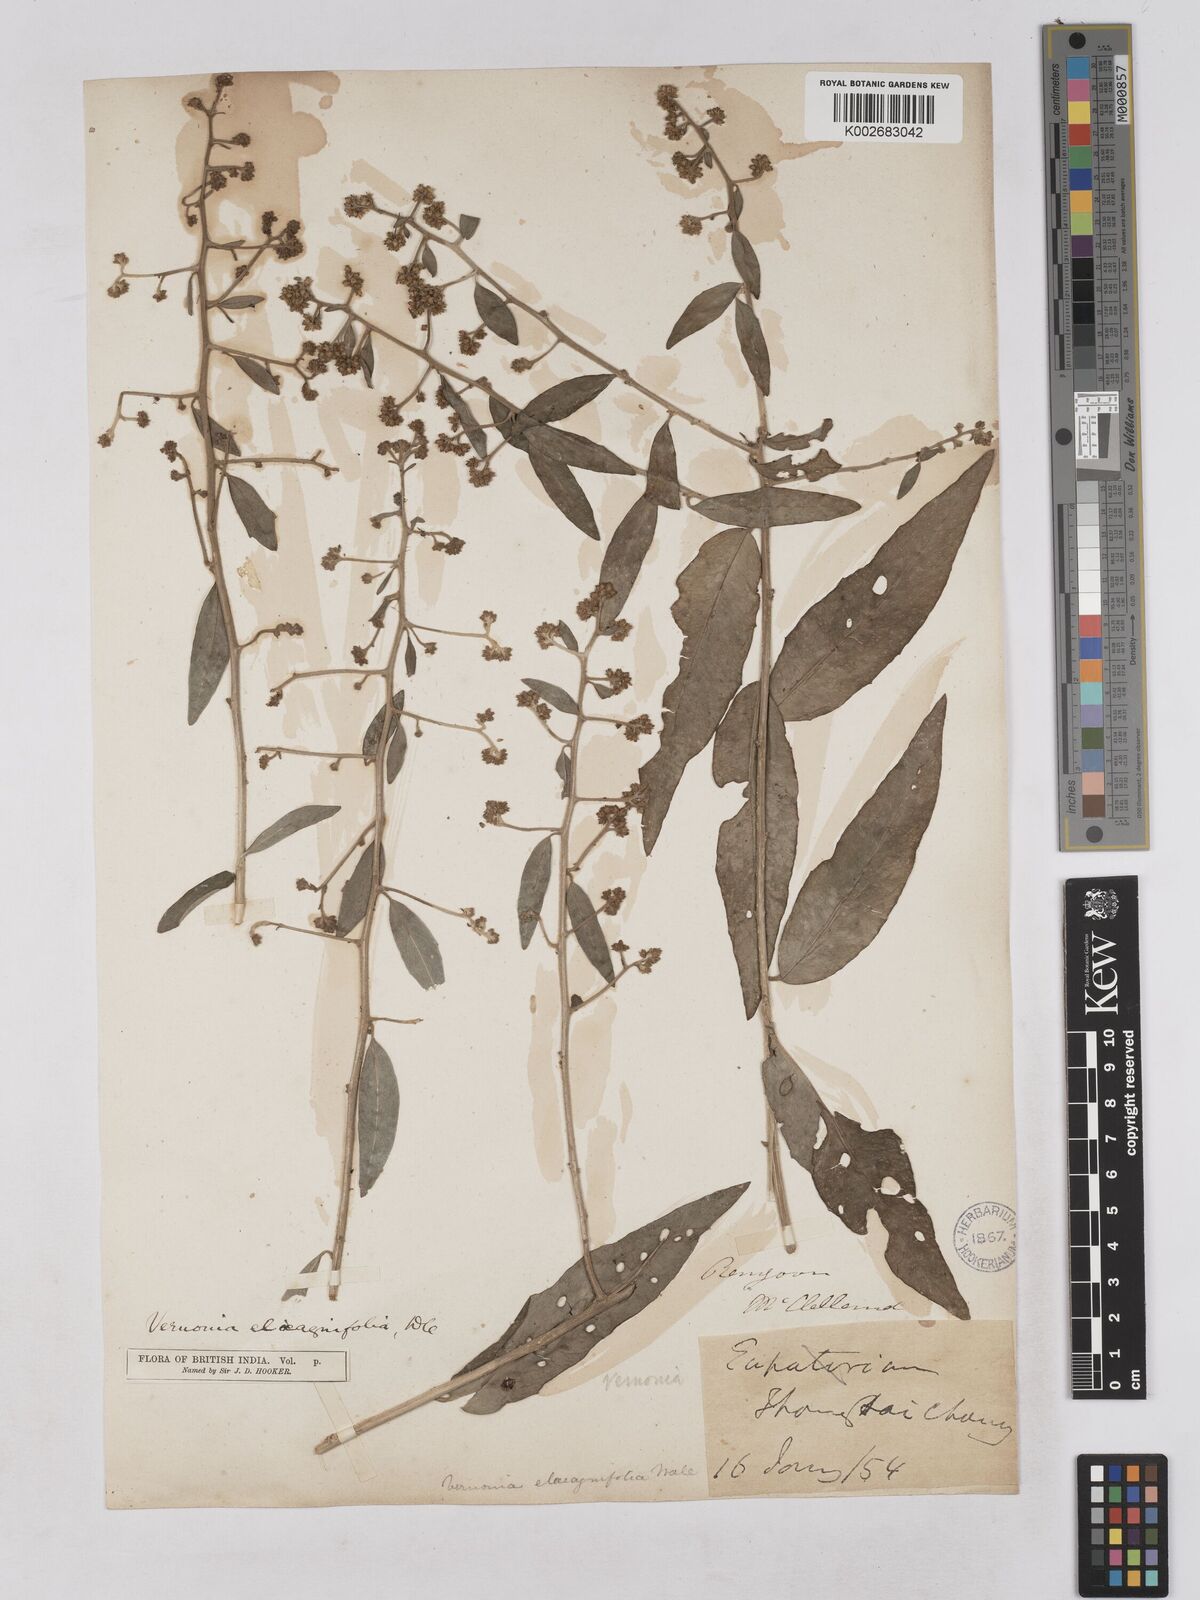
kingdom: Plantae
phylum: Tracheophyta
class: Magnoliopsida
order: Asterales
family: Asteraceae
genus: Tarlmounia
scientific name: Tarlmounia elliptica
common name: Kheua sa lot
